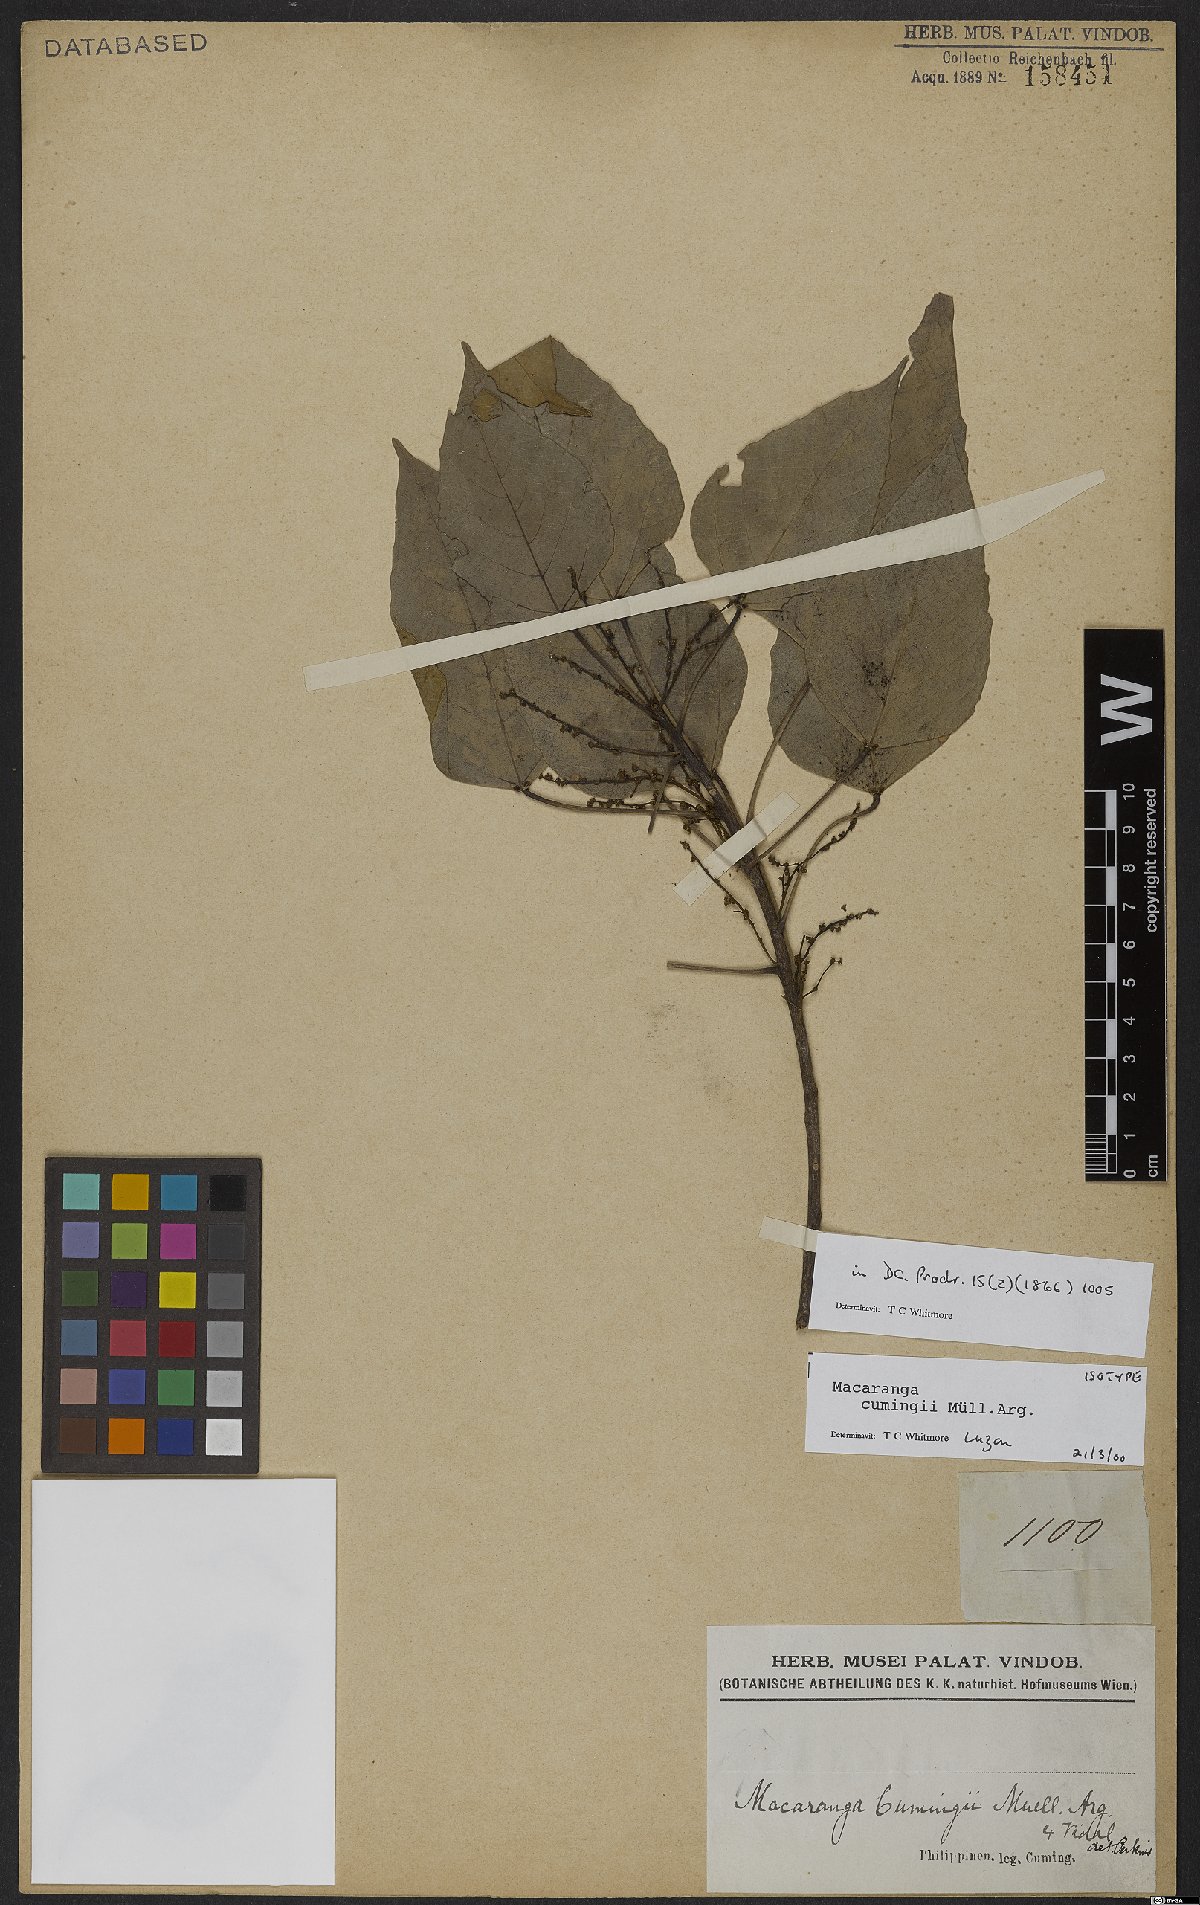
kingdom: Plantae
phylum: Tracheophyta
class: Magnoliopsida
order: Malpighiales
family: Euphorbiaceae
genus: Macaranga
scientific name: Macaranga cumingii
